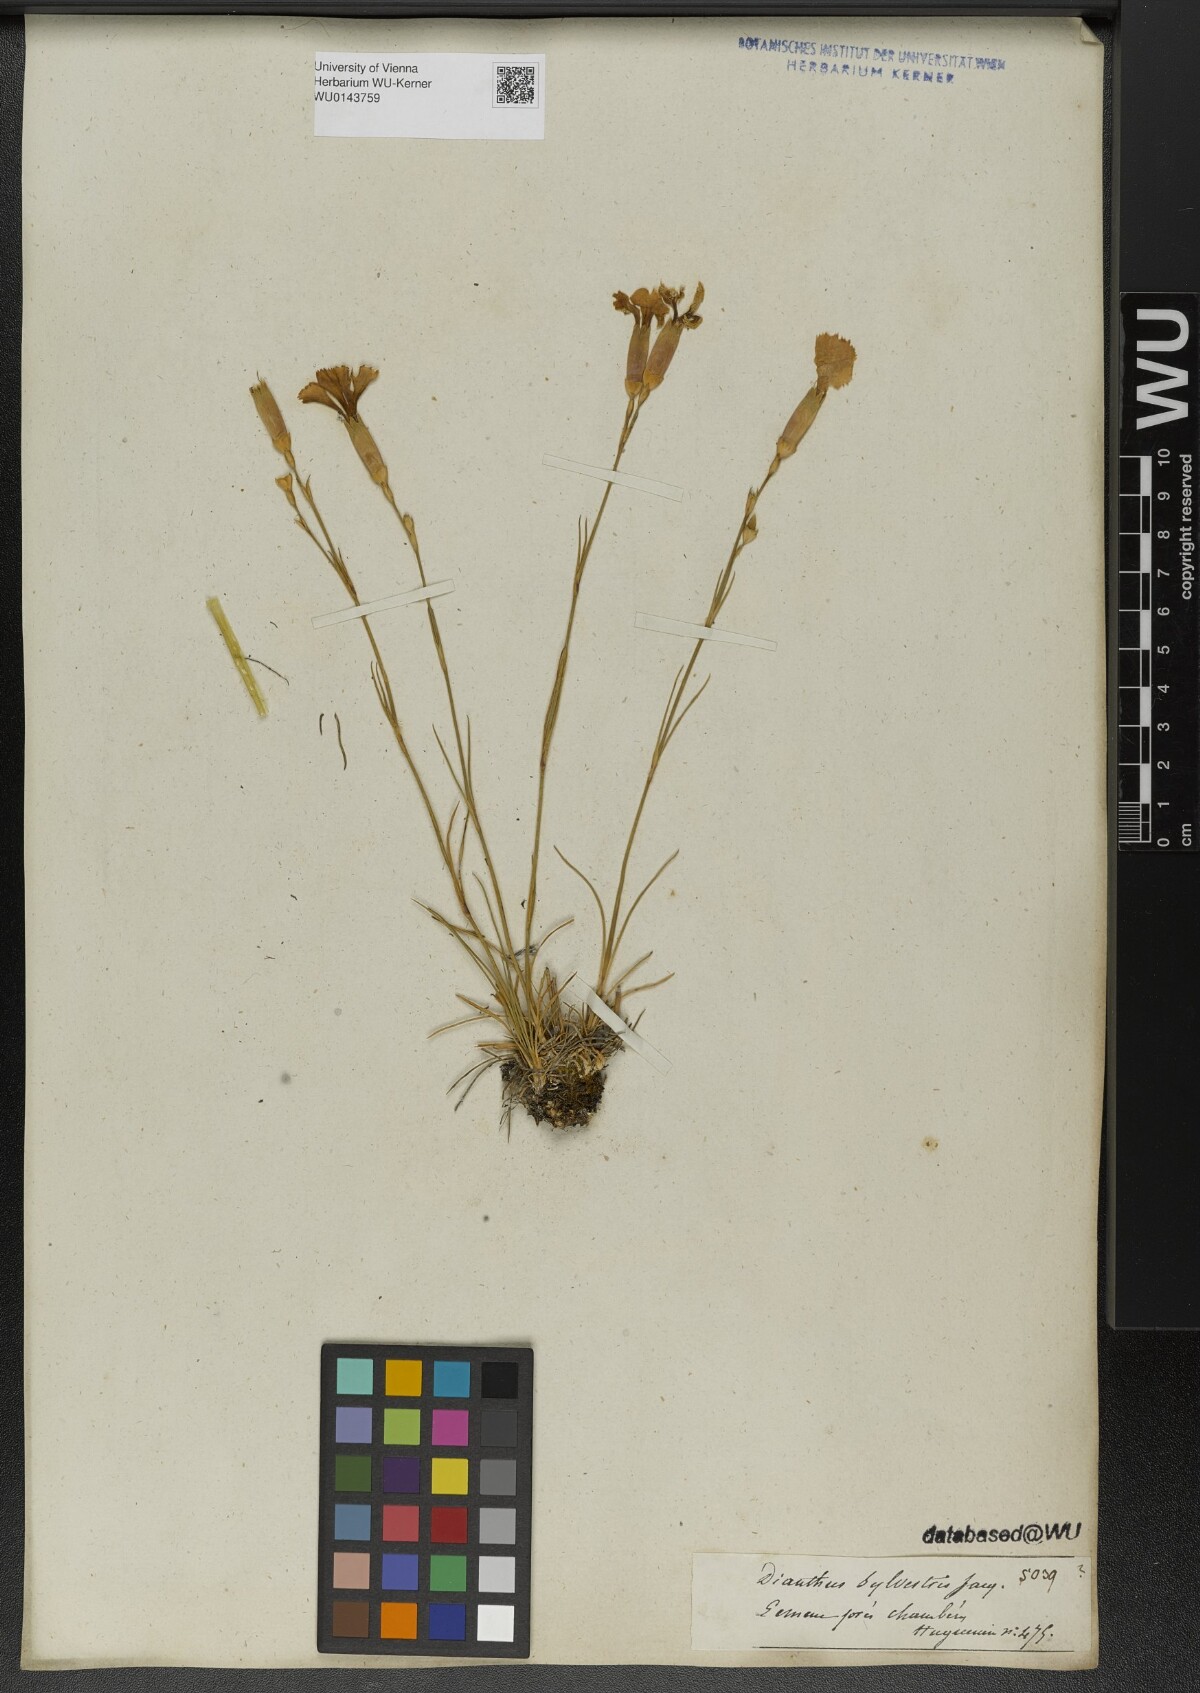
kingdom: Plantae
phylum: Tracheophyta
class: Magnoliopsida
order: Caryophyllales
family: Caryophyllaceae
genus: Dianthus
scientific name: Dianthus sylvaticus
